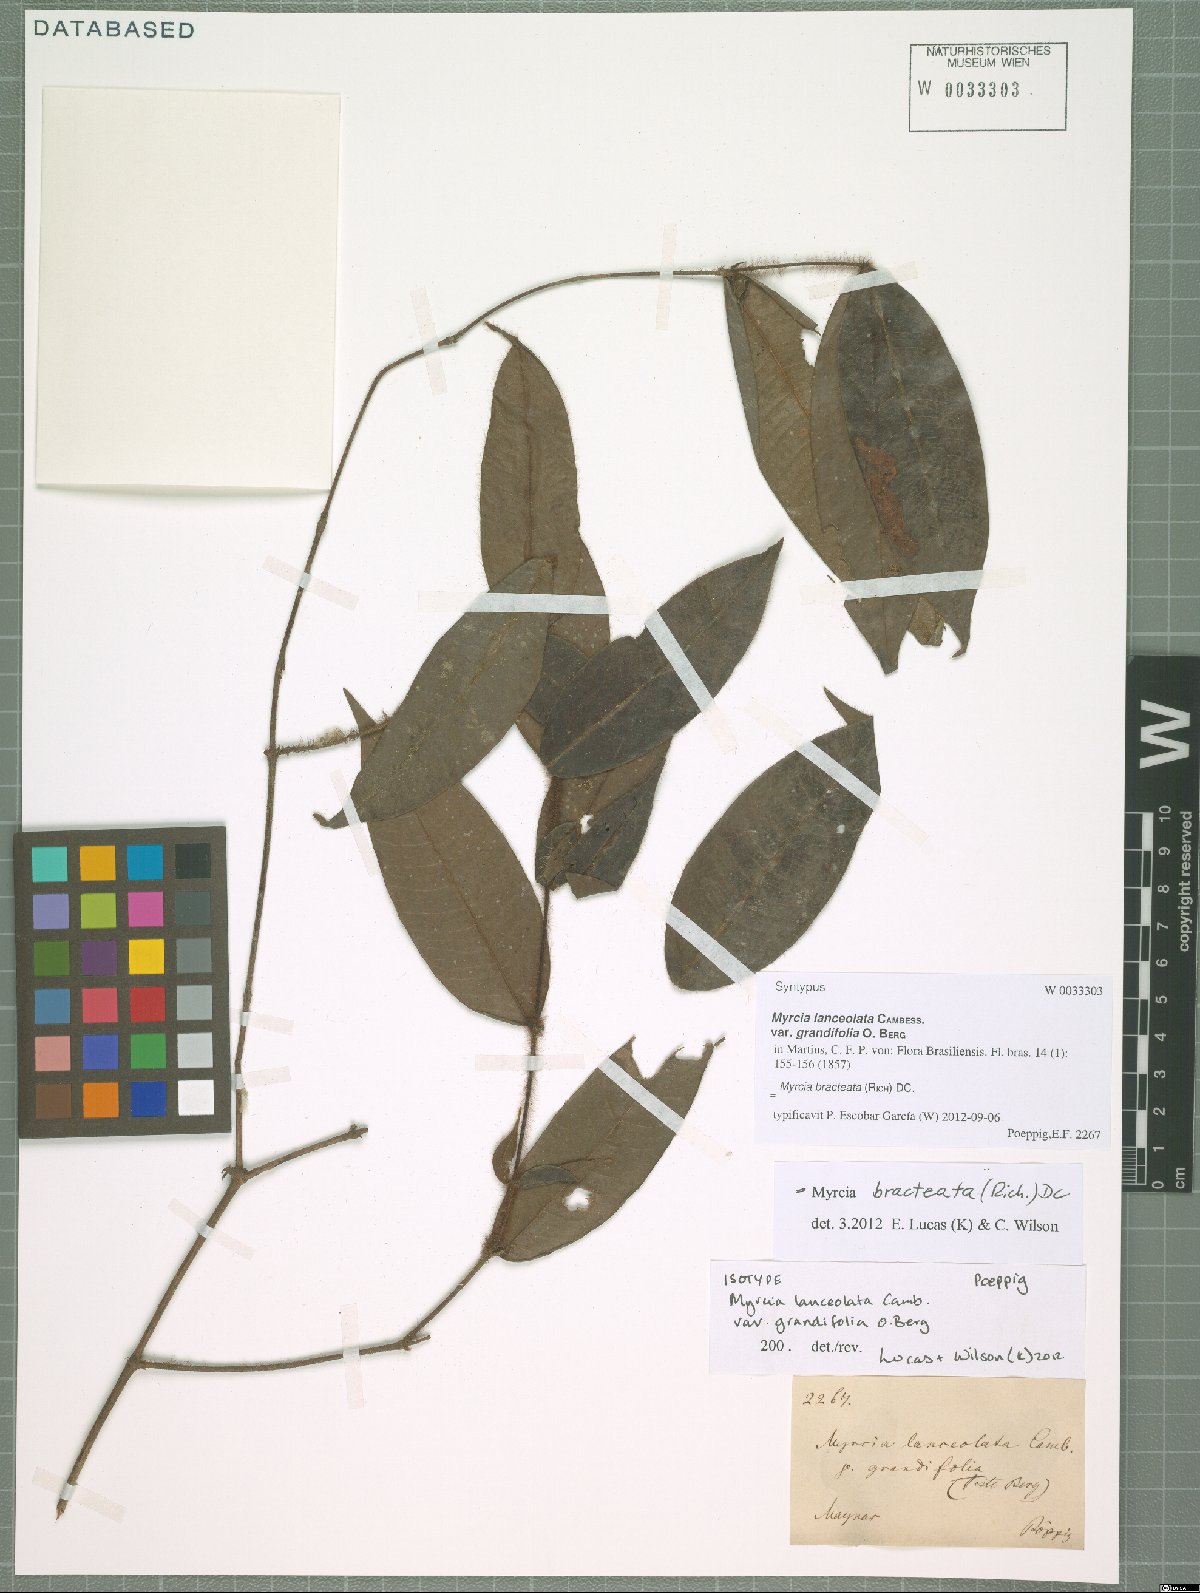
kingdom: Plantae
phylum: Tracheophyta
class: Magnoliopsida
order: Myrtales
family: Myrtaceae
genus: Myrcia
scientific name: Myrcia bracteata
